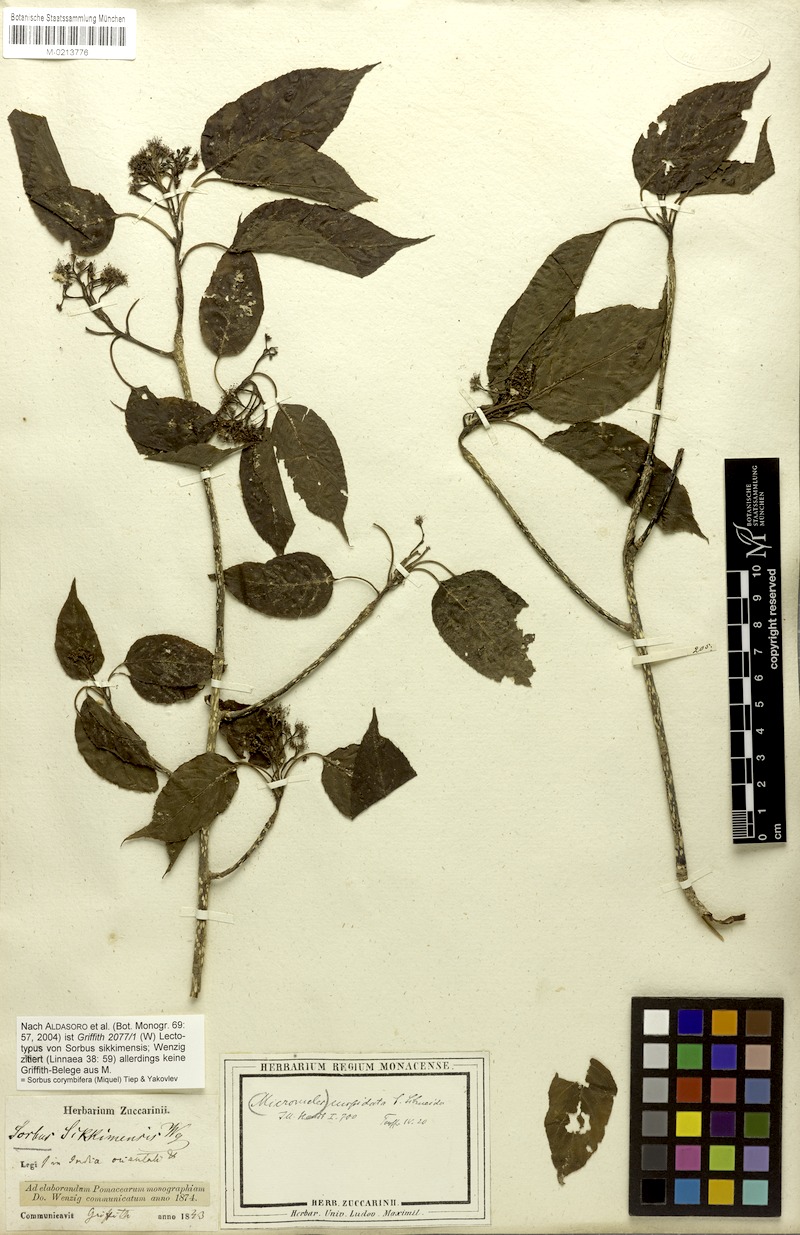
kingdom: Plantae
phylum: Tracheophyta
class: Magnoliopsida
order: Rosales
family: Rosaceae
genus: Sorbus
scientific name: Sorbus corymbifera
